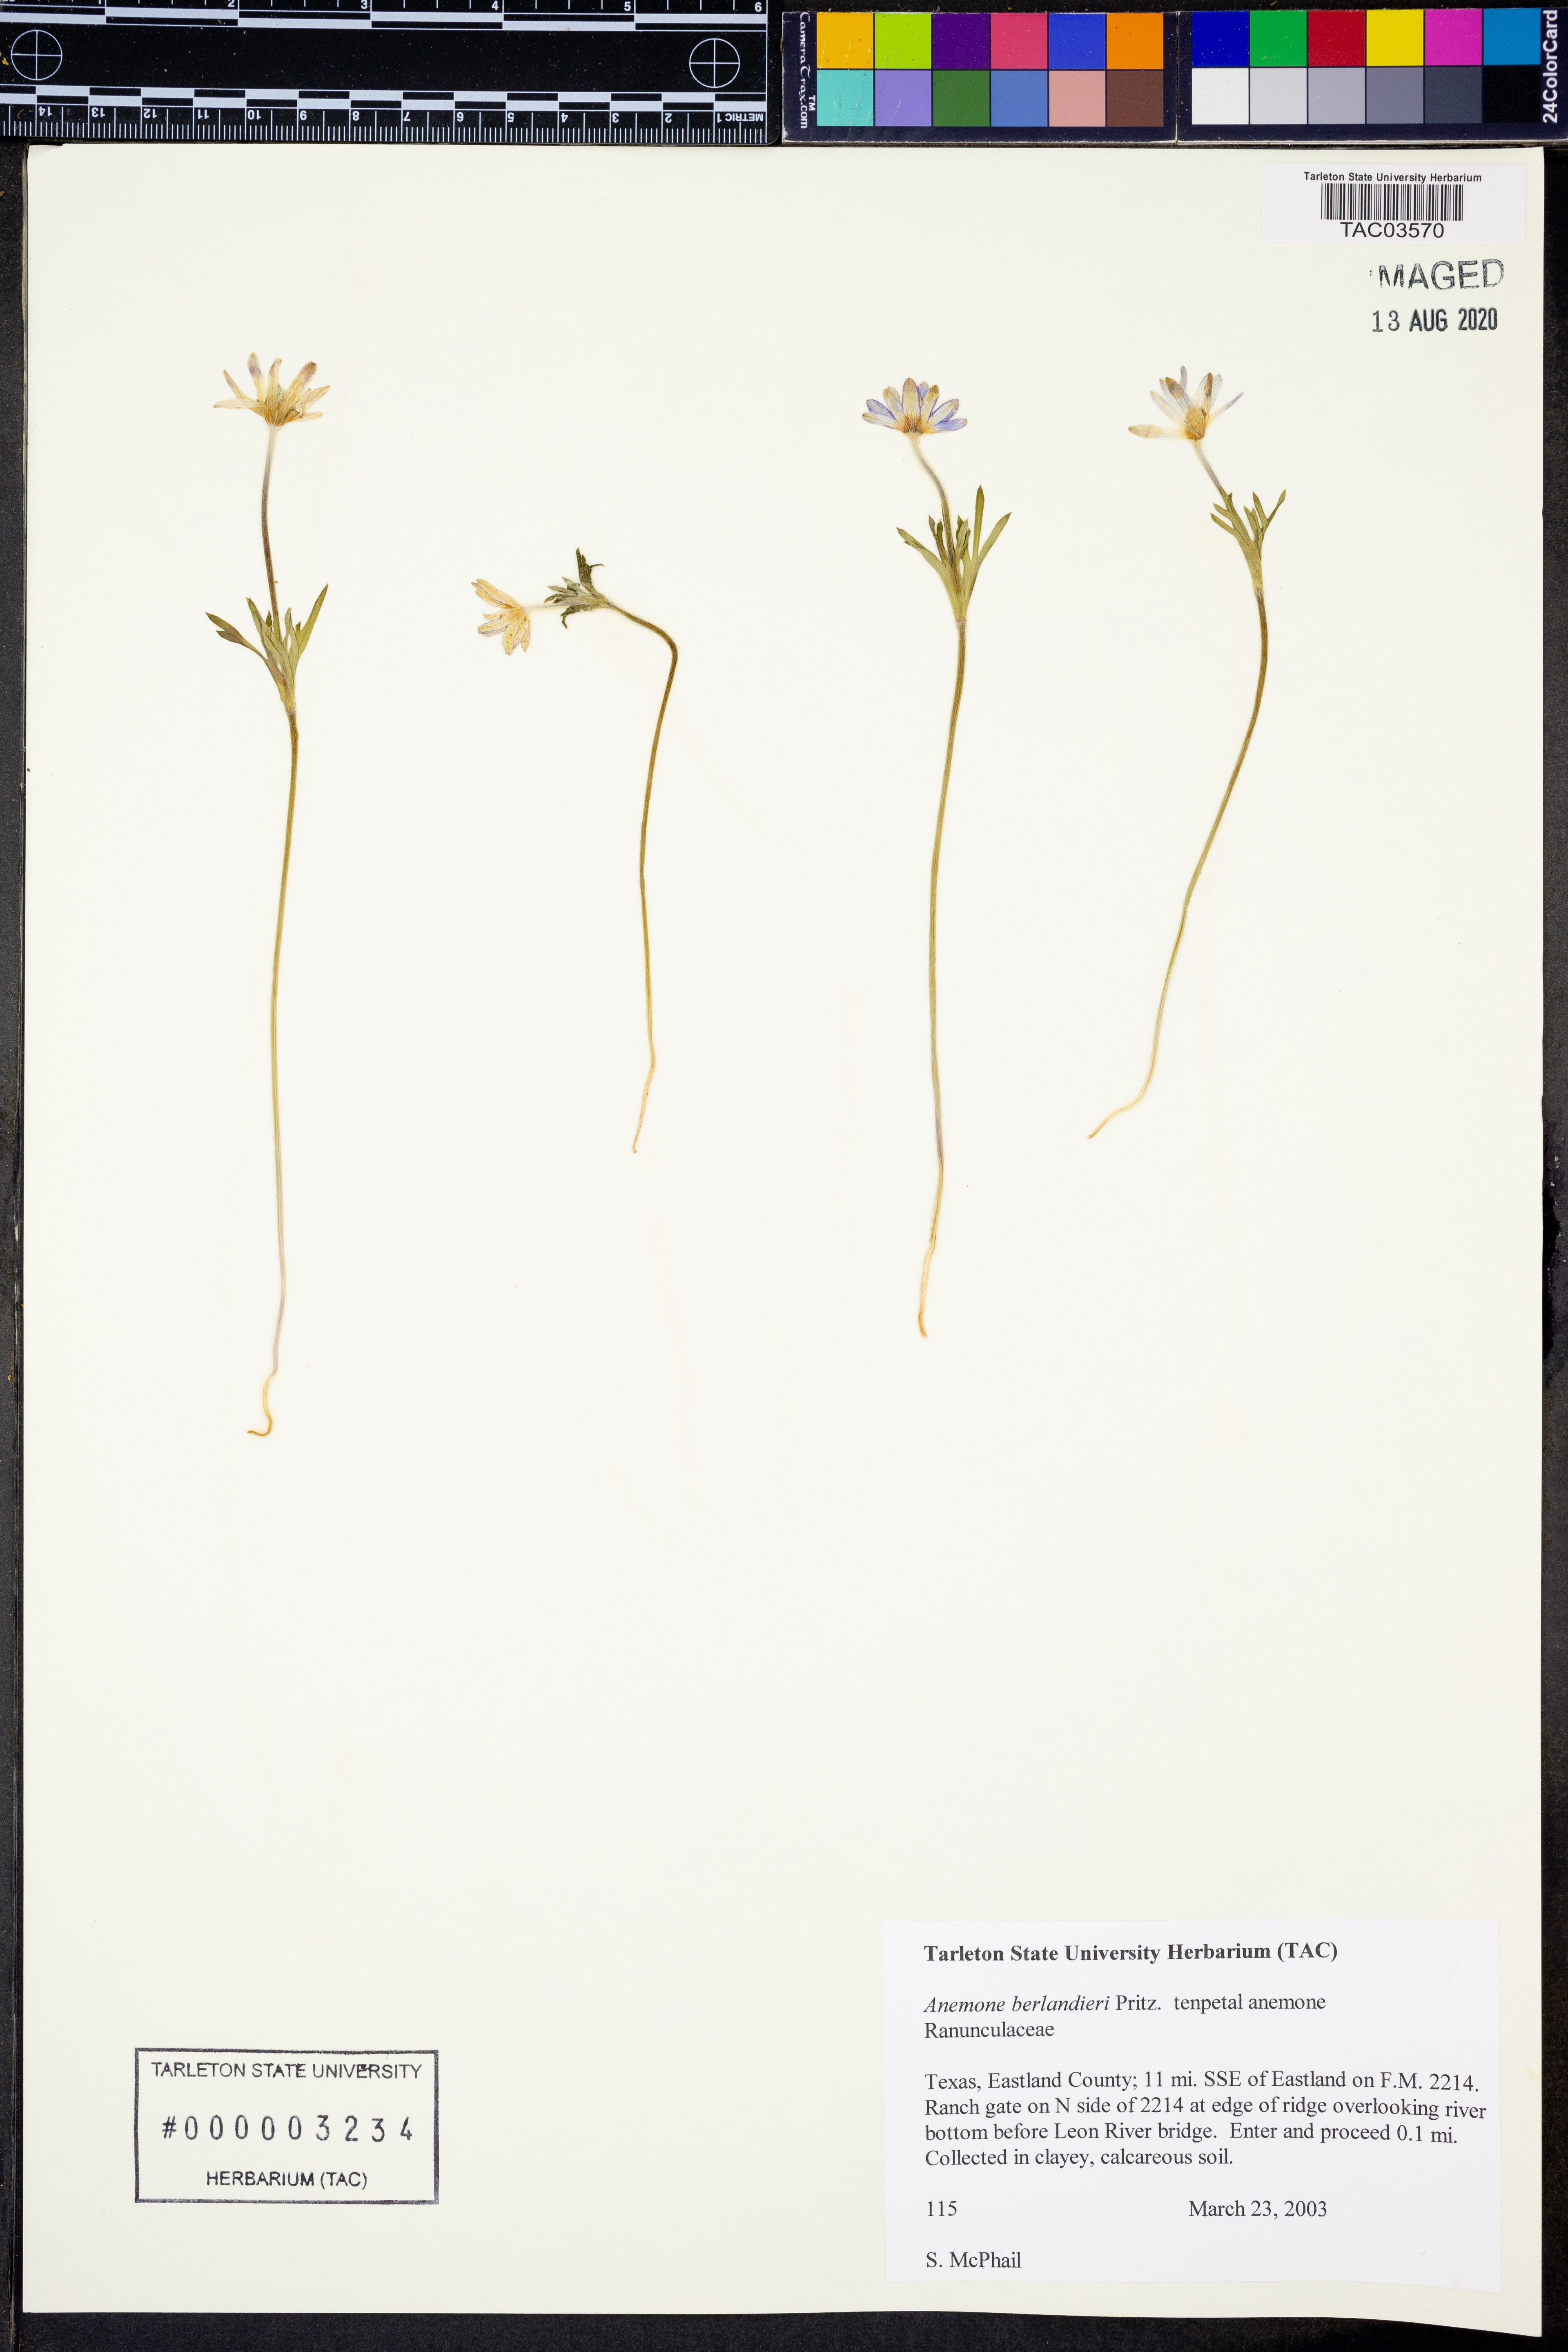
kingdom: Plantae
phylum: Tracheophyta
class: Magnoliopsida
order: Ranunculales
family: Ranunculaceae
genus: Anemone
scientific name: Anemone berlandieri
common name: Ten-petal anemone
